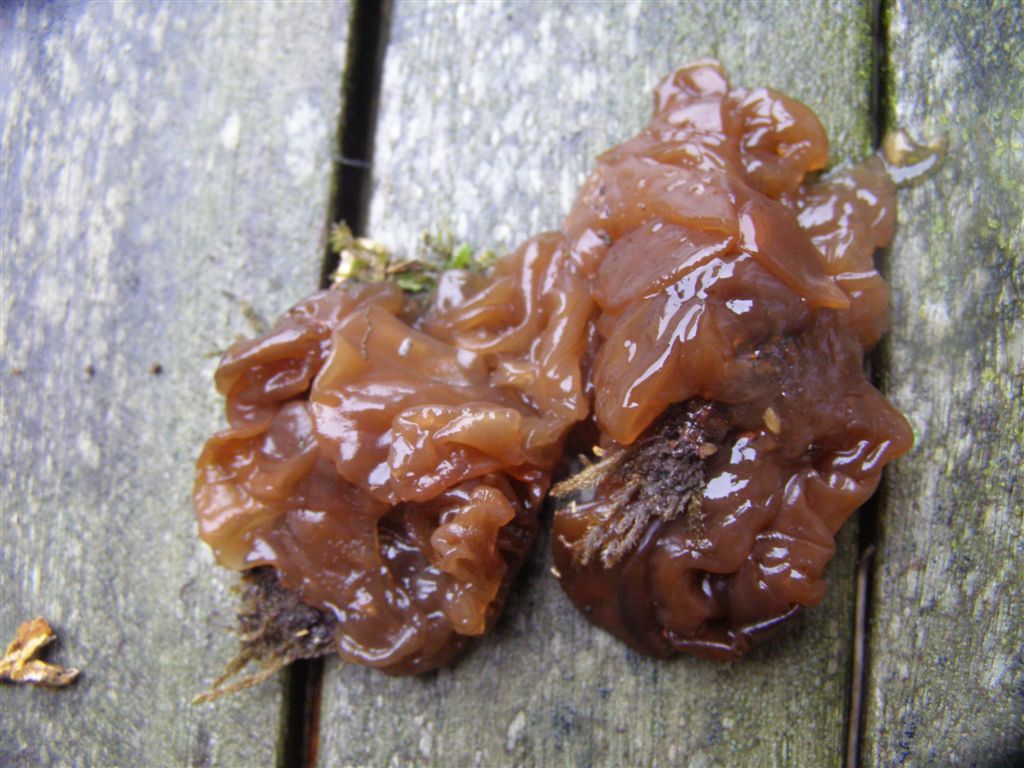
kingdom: Fungi
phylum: Basidiomycota
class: Tremellomycetes
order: Tremellales
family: Tremellaceae
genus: Phaeotremella
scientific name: Phaeotremella frondosa
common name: kæmpe-bævresvamp
